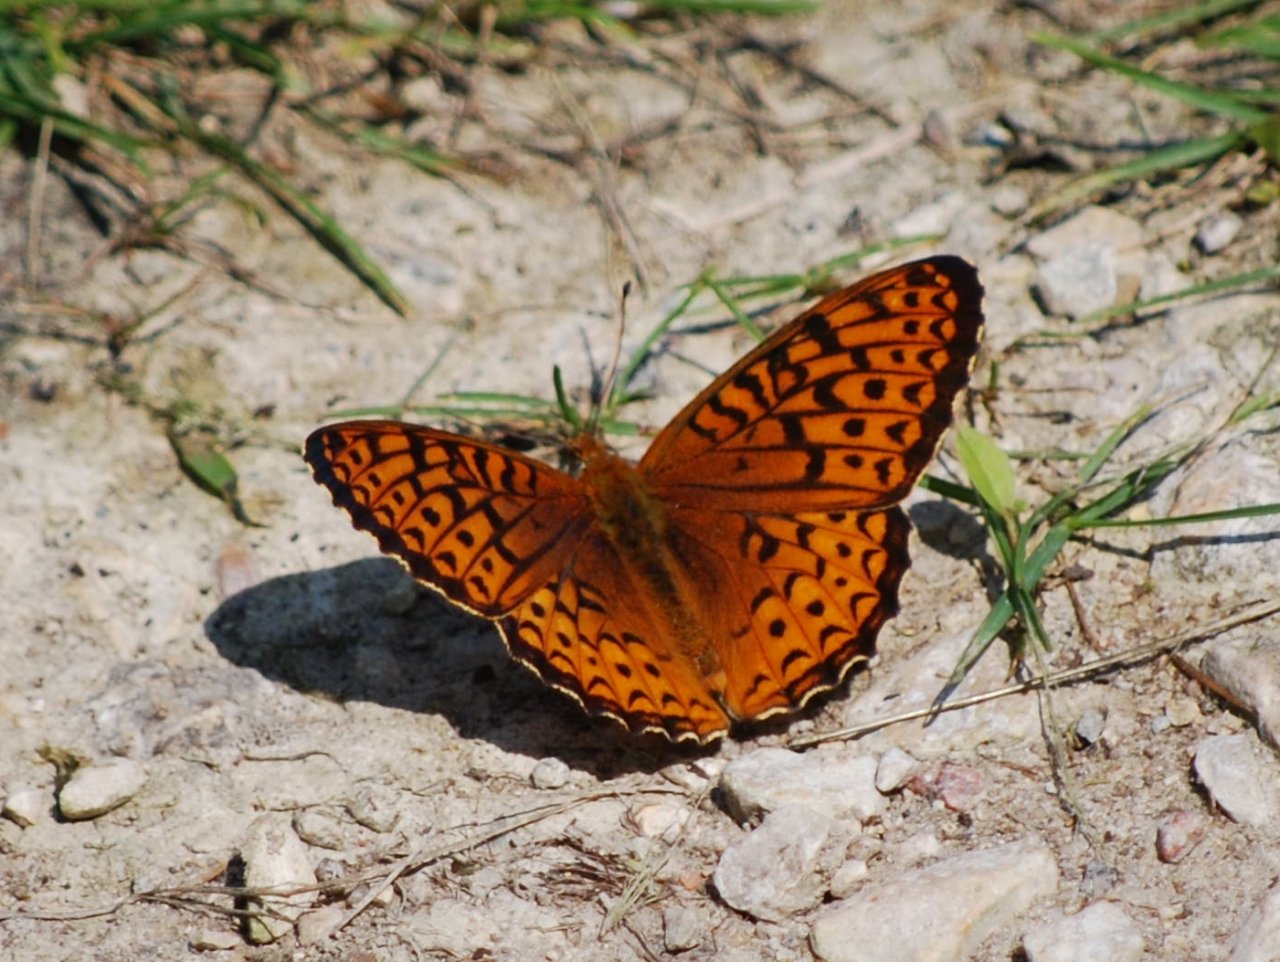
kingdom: Animalia
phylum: Arthropoda
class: Insecta
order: Lepidoptera
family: Nymphalidae
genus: Speyeria
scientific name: Speyeria atlantis
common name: Atlantis Fritillary
